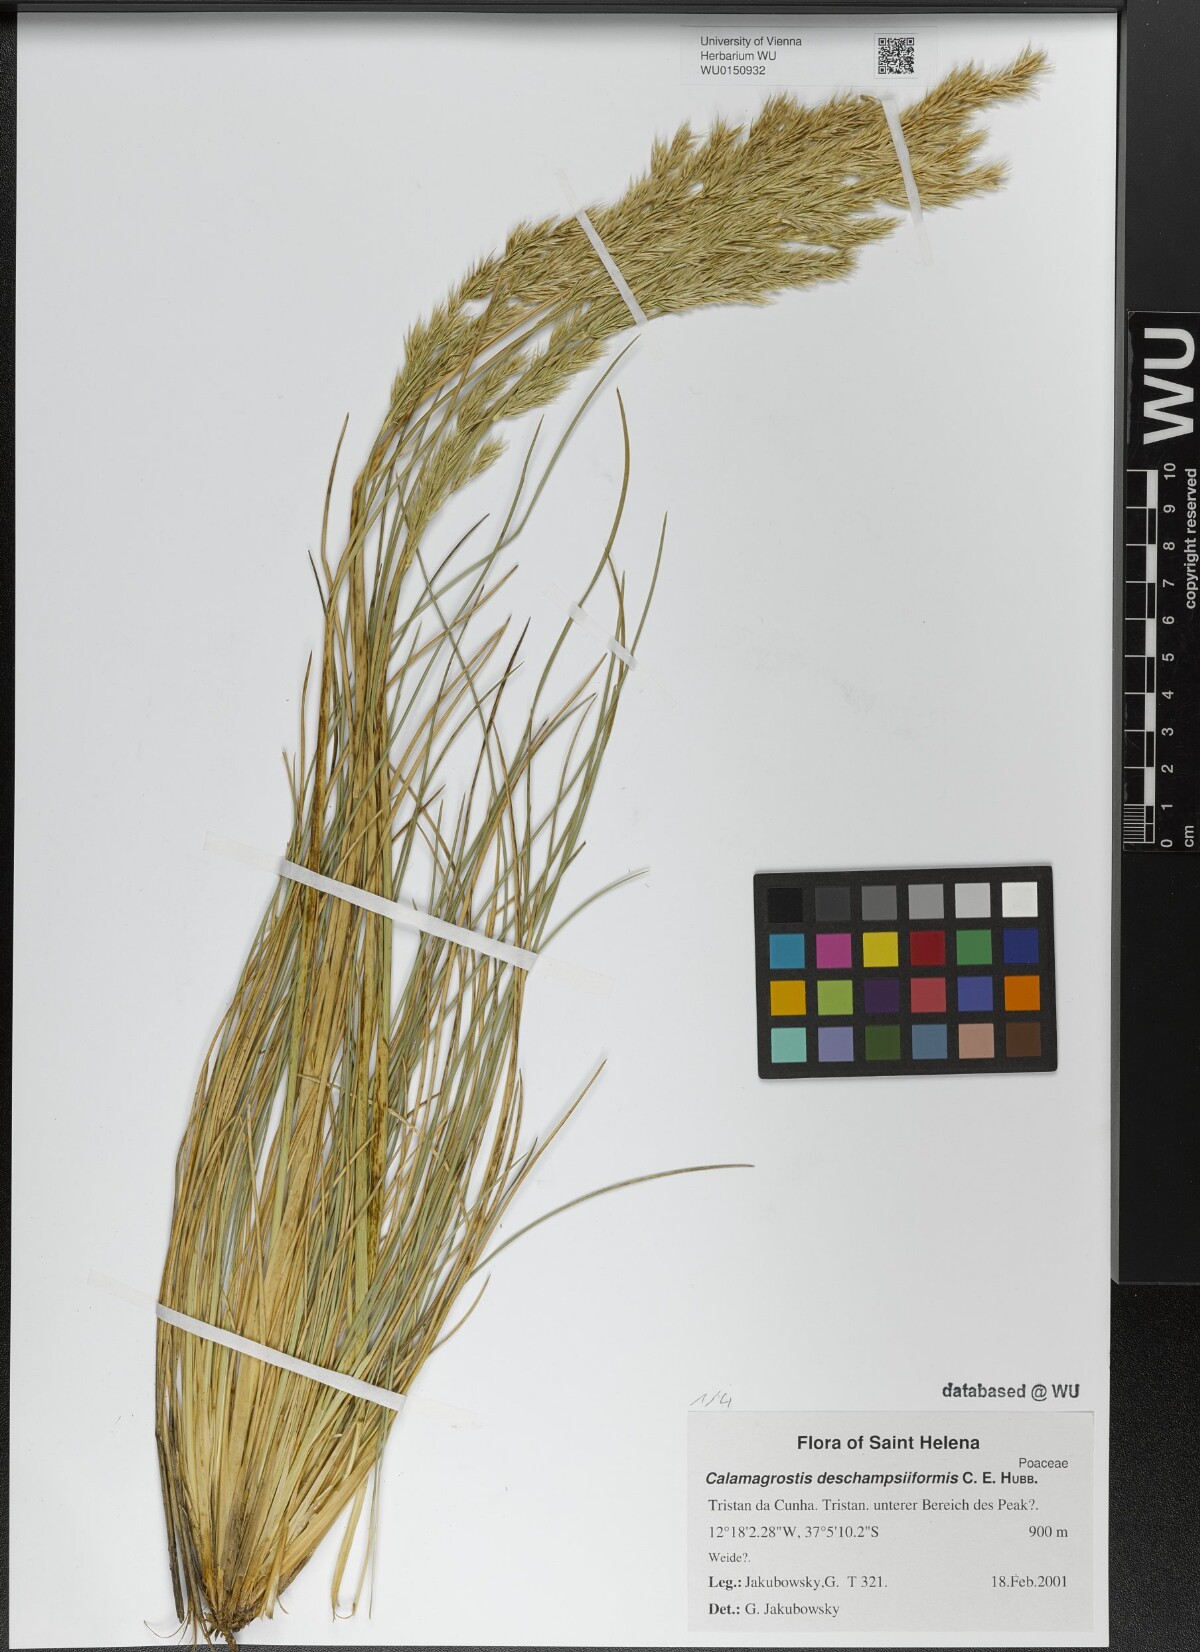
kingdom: Plantae
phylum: Tracheophyta
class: Liliopsida
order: Poales
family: Poaceae
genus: Calamagrostis
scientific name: Calamagrostis deschampsiiformis
